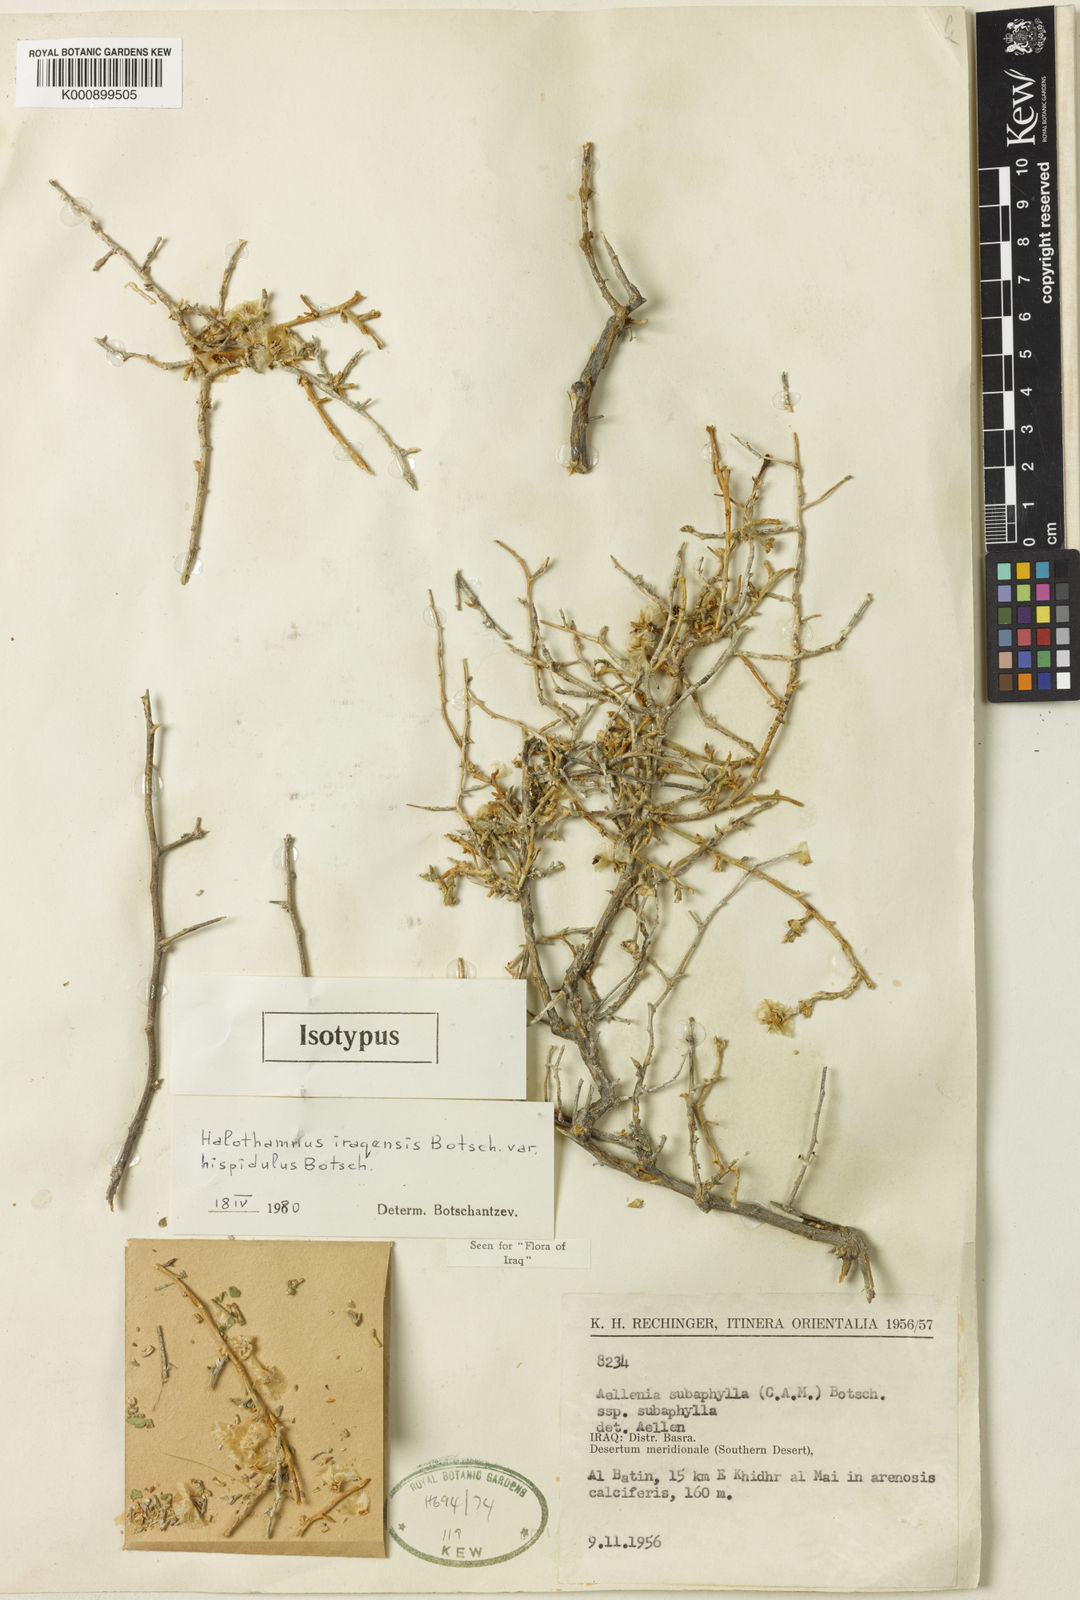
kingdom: Plantae
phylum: Tracheophyta
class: Magnoliopsida
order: Caryophyllales
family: Amaranthaceae
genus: Halothamnus
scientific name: Halothamnus iraqensis
